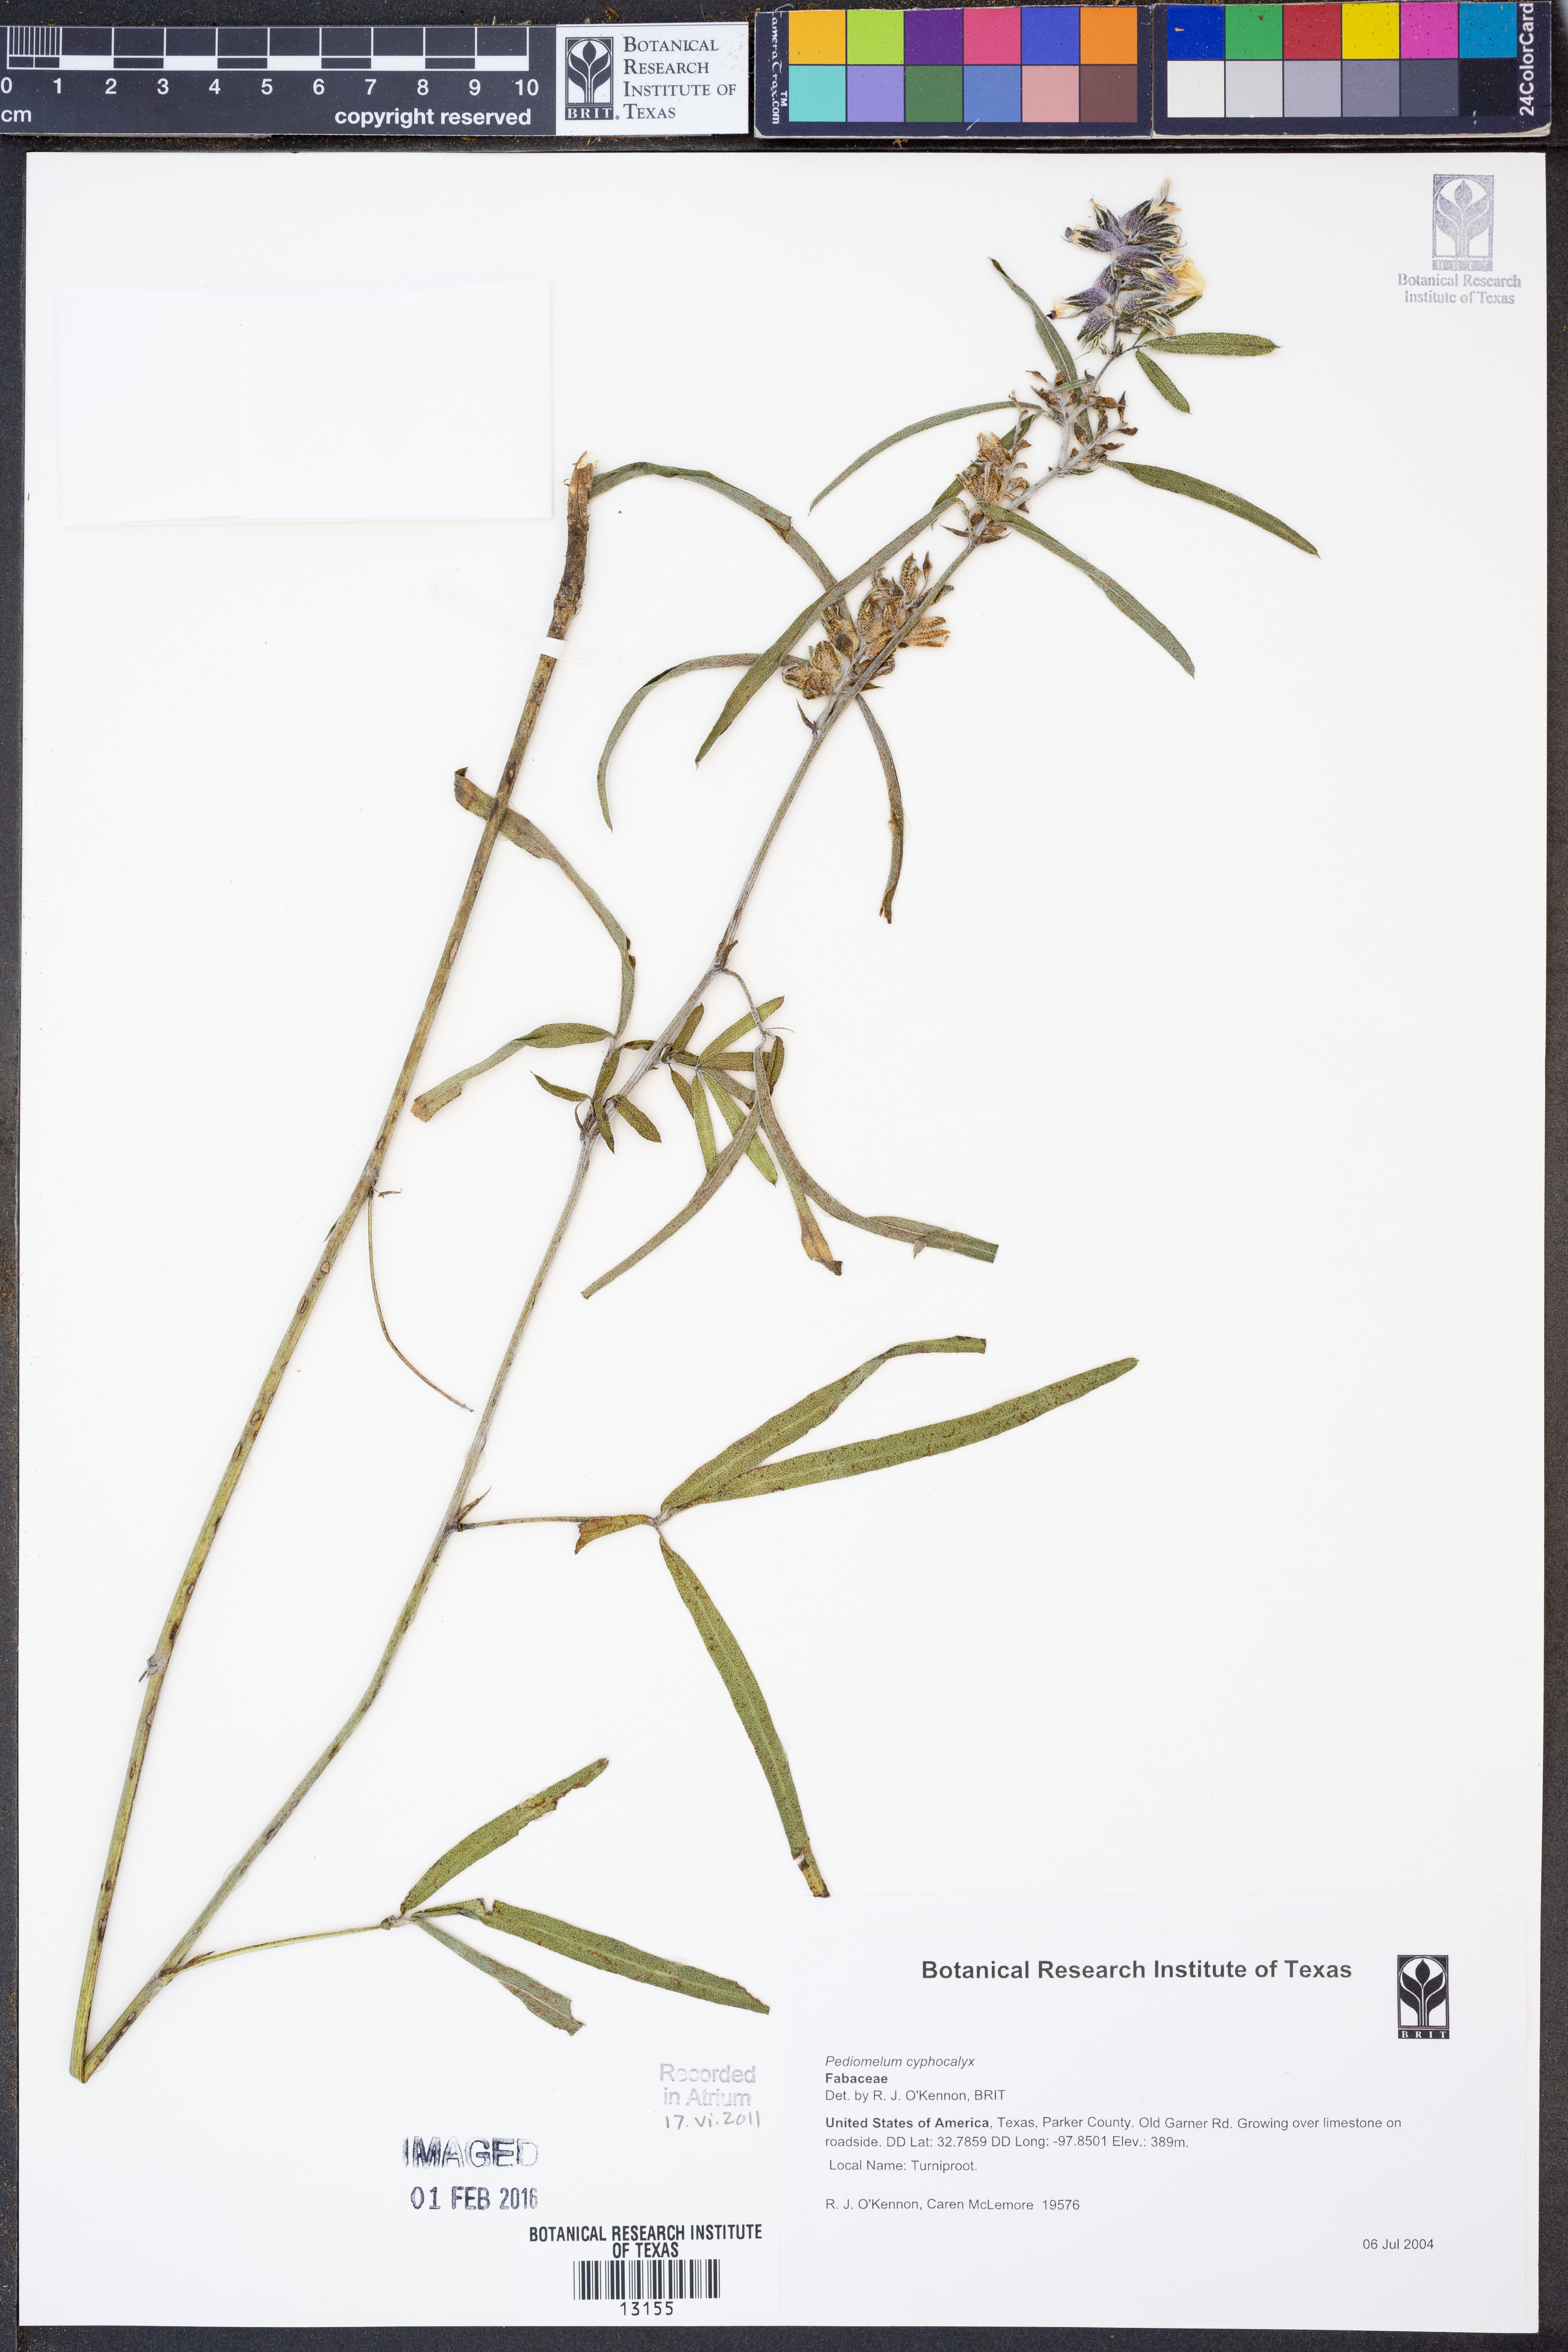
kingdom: Plantae
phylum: Tracheophyta
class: Magnoliopsida
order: Fabales
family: Fabaceae
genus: Pediomelum
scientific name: Pediomelum cyphocalyx
